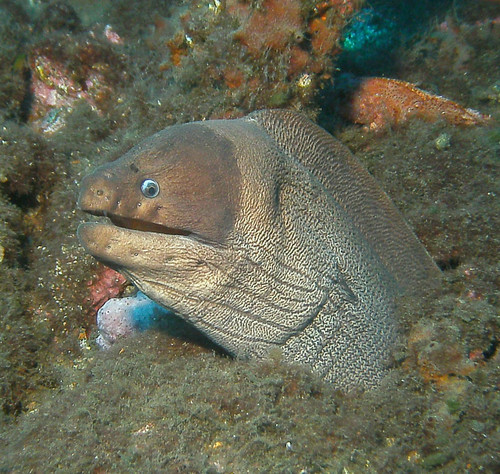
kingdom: Animalia
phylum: Chordata
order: Anguilliformes
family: Muraenidae
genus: Gymnothorax
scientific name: Gymnothorax unicolor
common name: Brown moray
